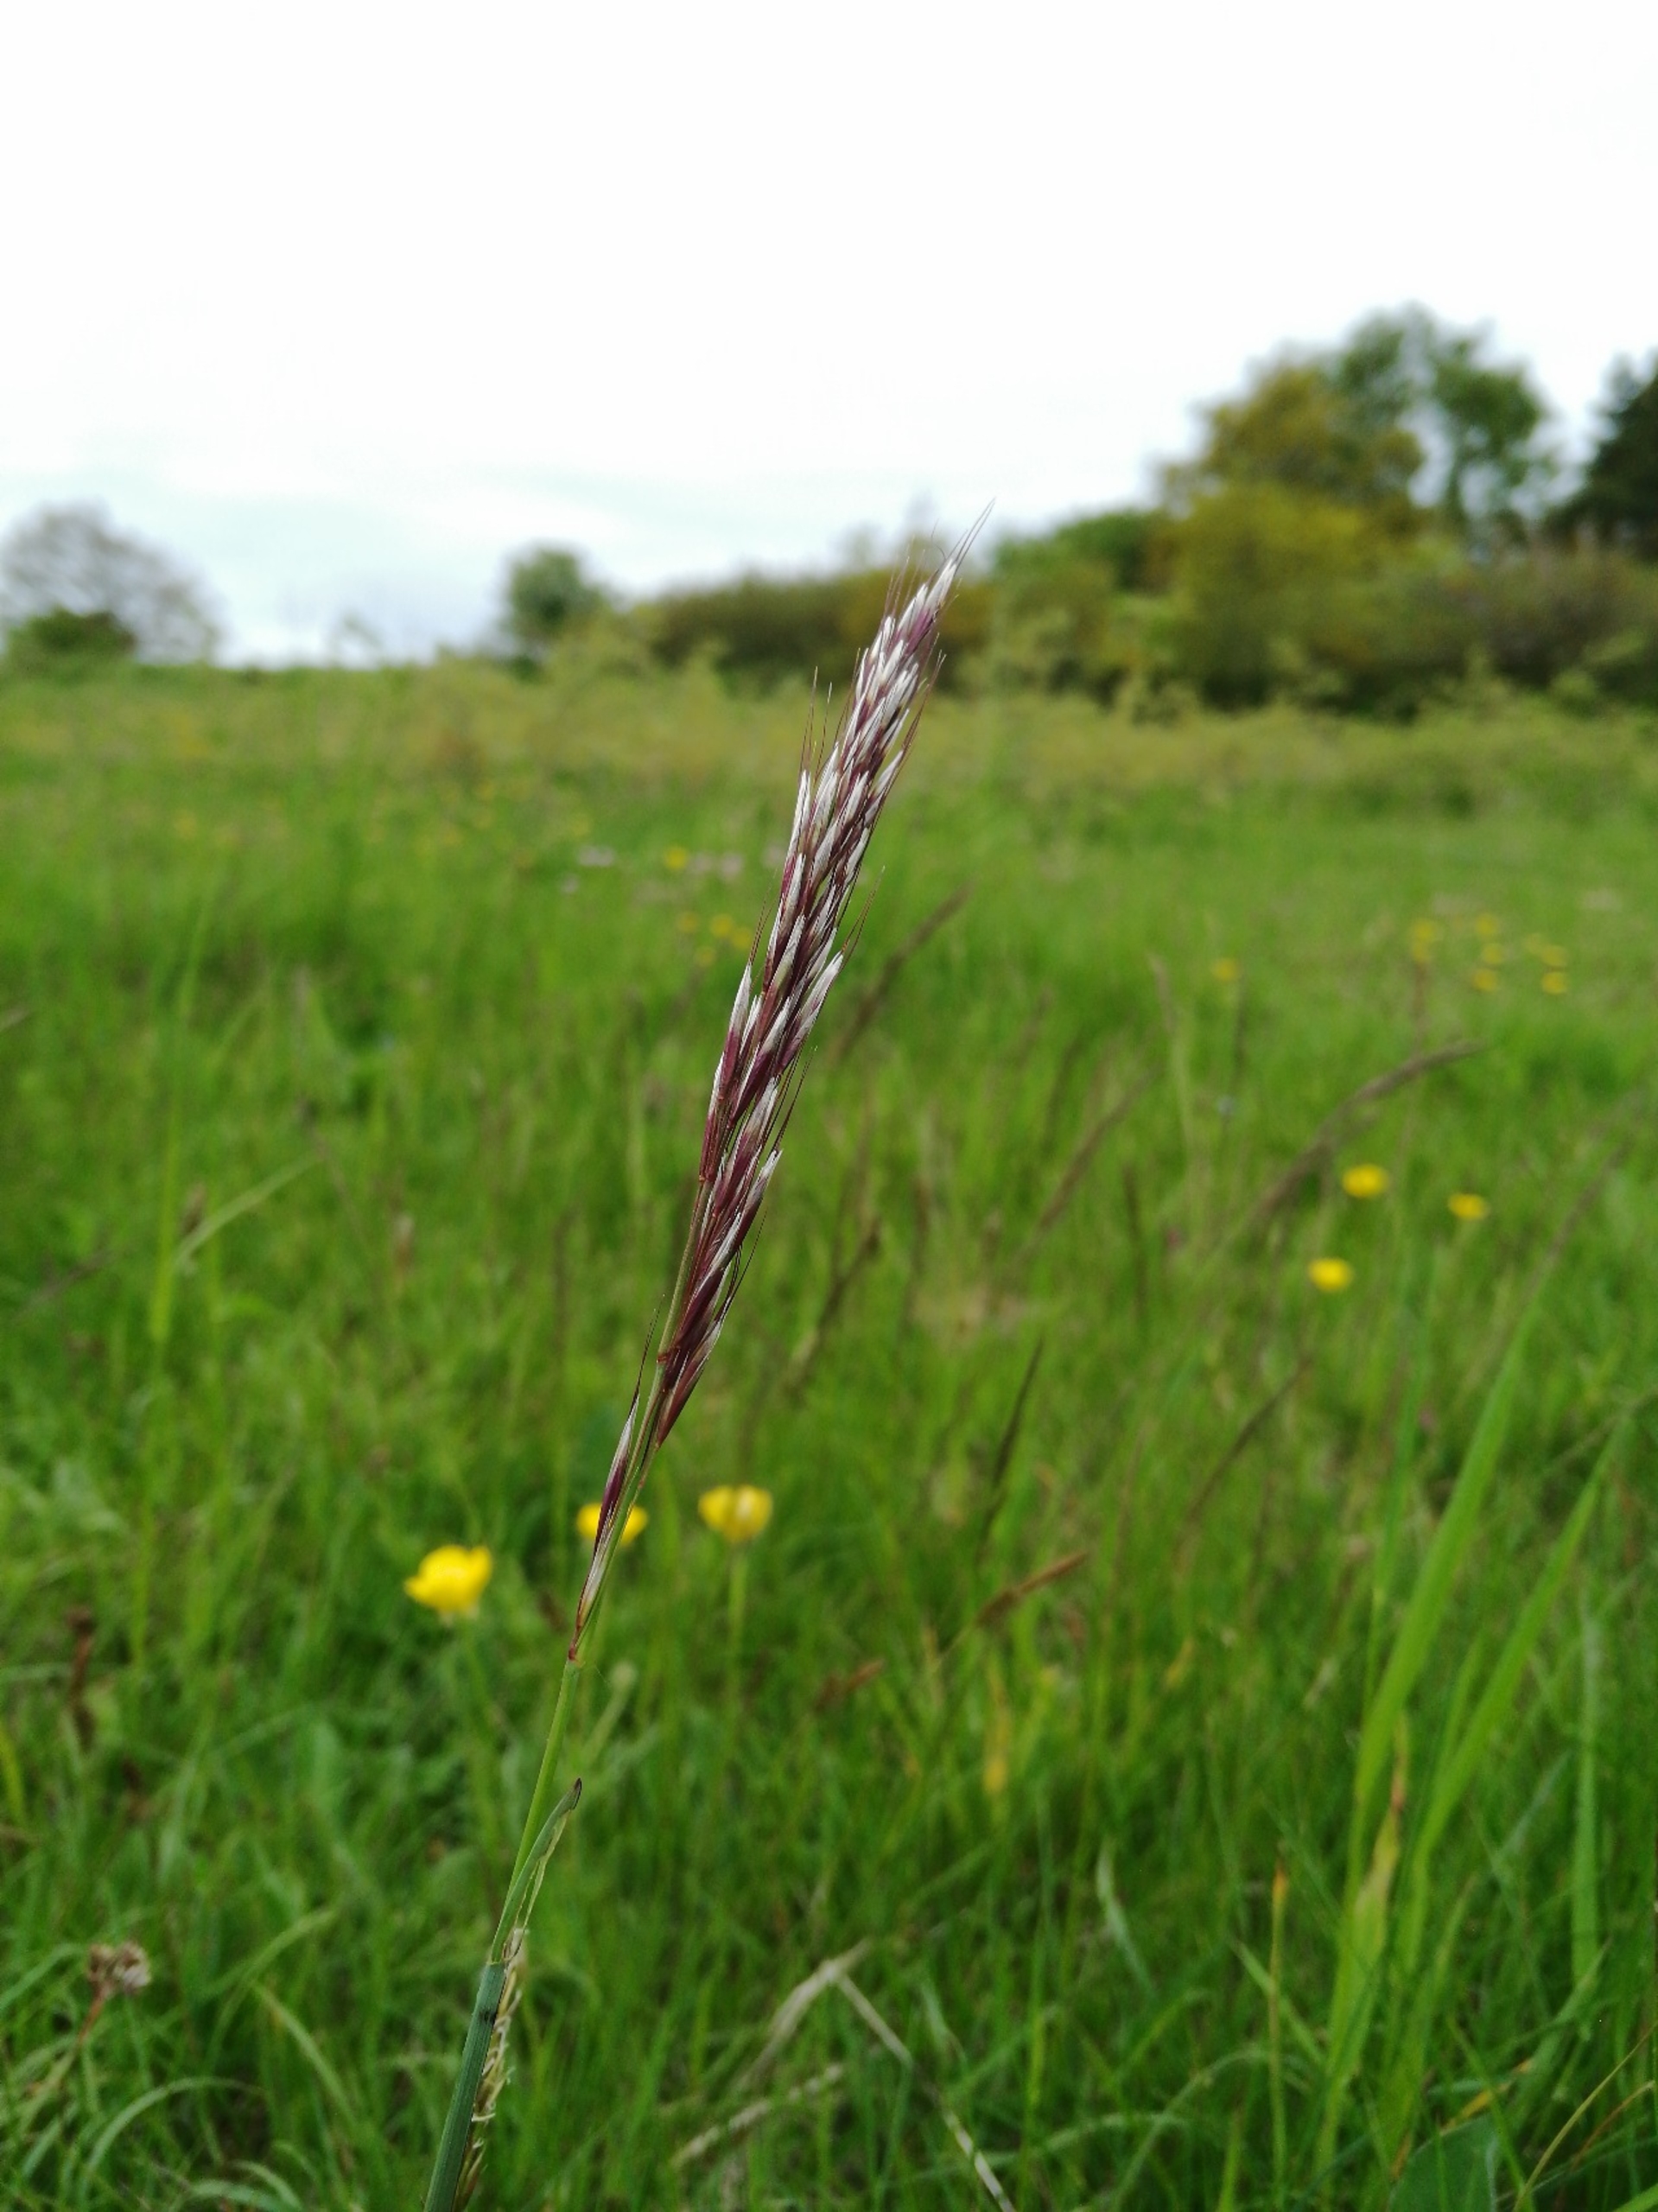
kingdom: Plantae
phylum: Tracheophyta
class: Liliopsida
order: Poales
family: Poaceae
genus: Avenula
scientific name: Avenula pubescens
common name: Dunet havre
